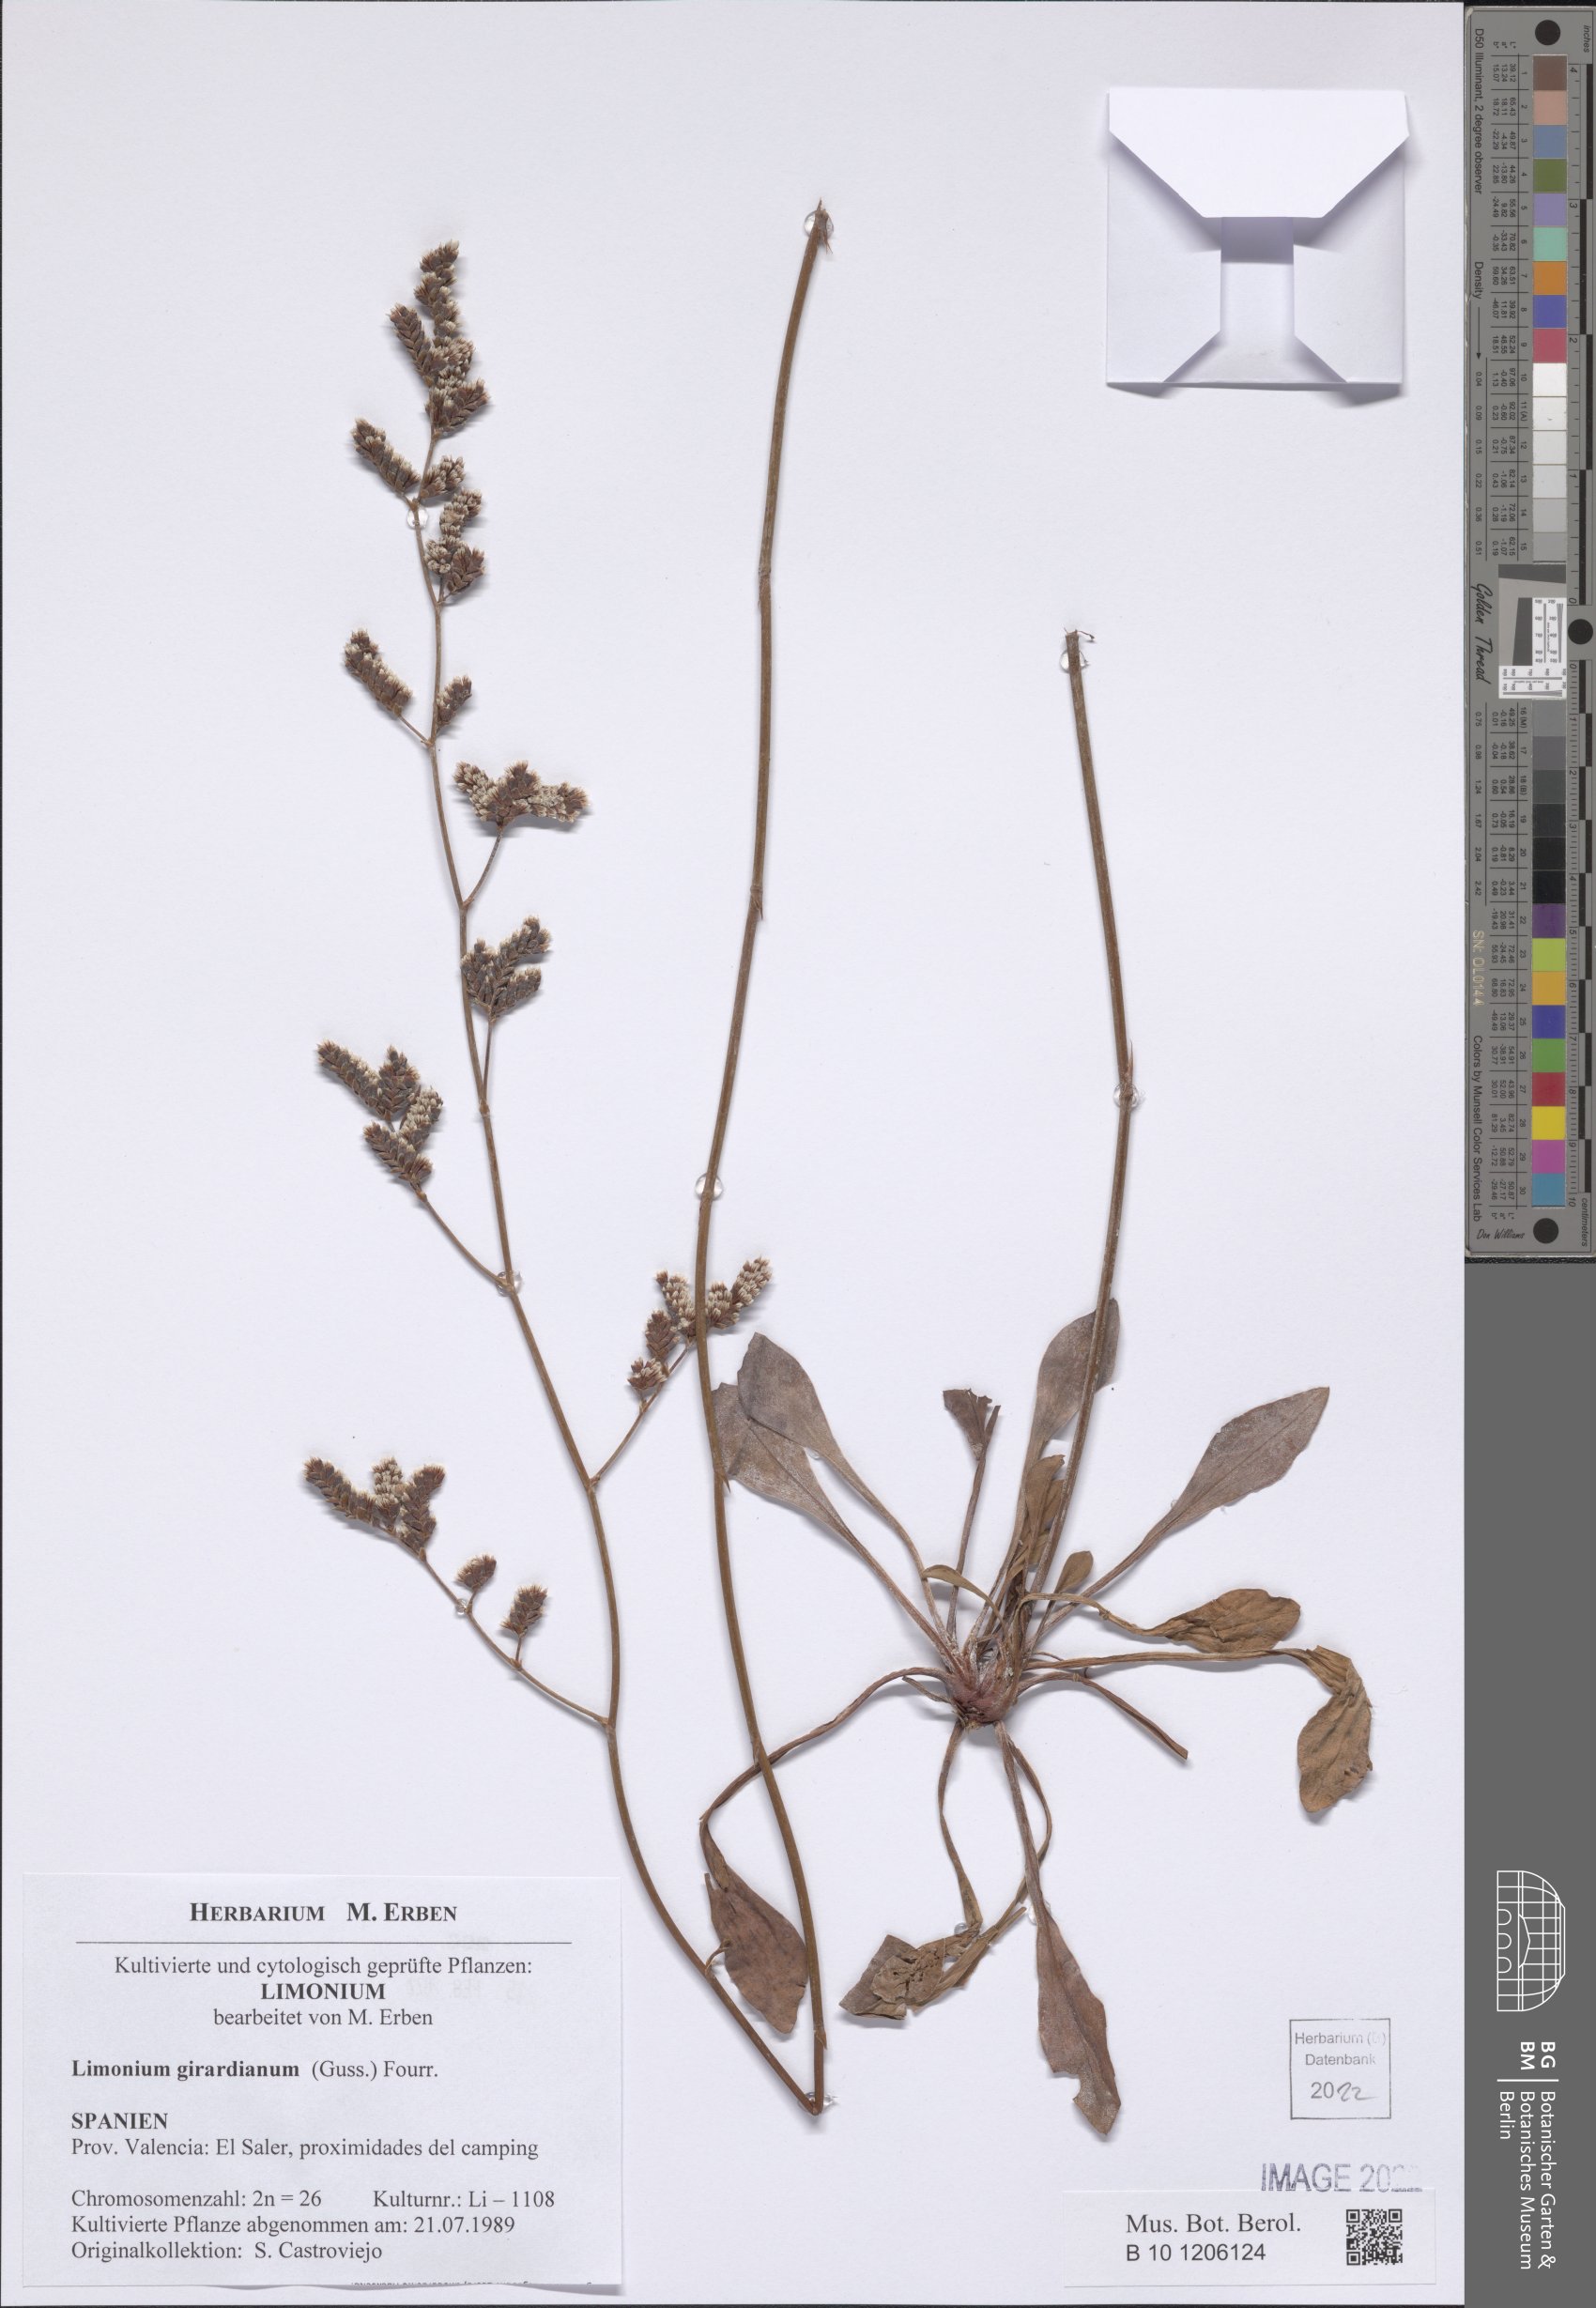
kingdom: Plantae
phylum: Tracheophyta
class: Magnoliopsida
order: Caryophyllales
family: Plumbaginaceae
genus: Limonium
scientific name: Limonium girardianum
